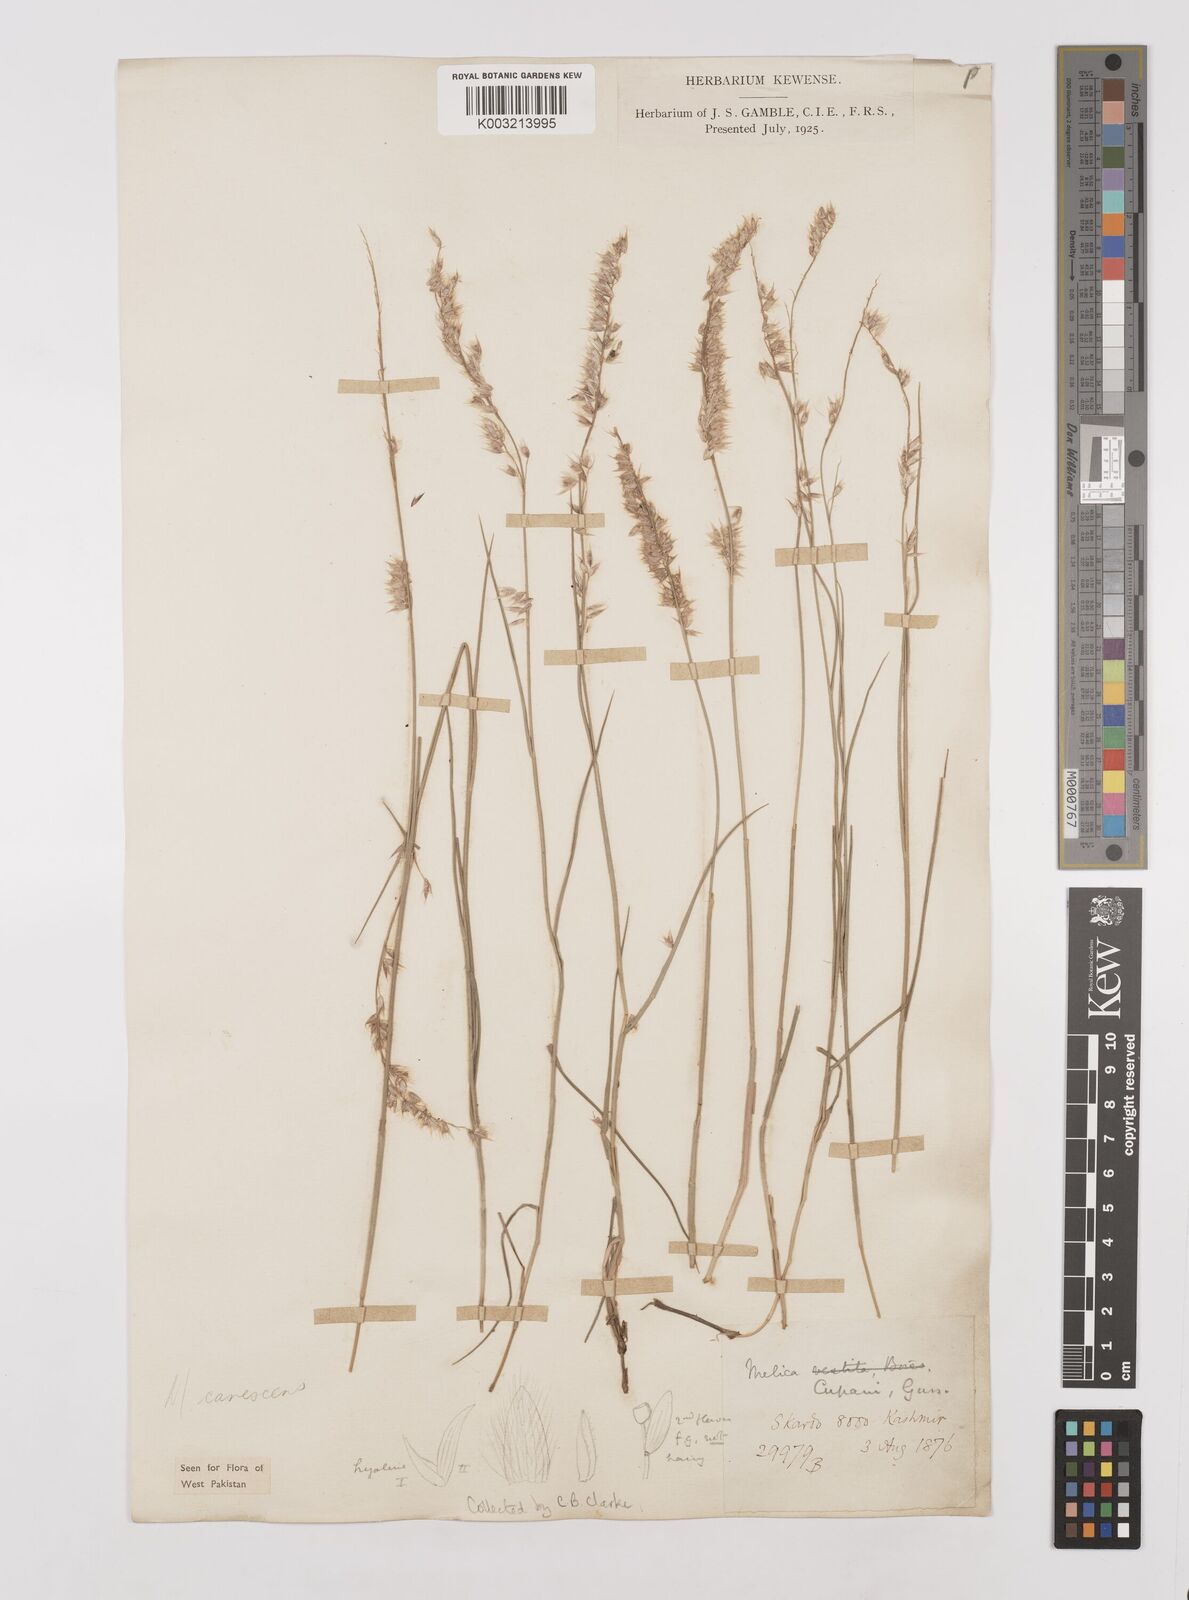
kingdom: Plantae
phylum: Tracheophyta
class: Liliopsida
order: Poales
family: Poaceae
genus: Melica
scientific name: Melica persica
